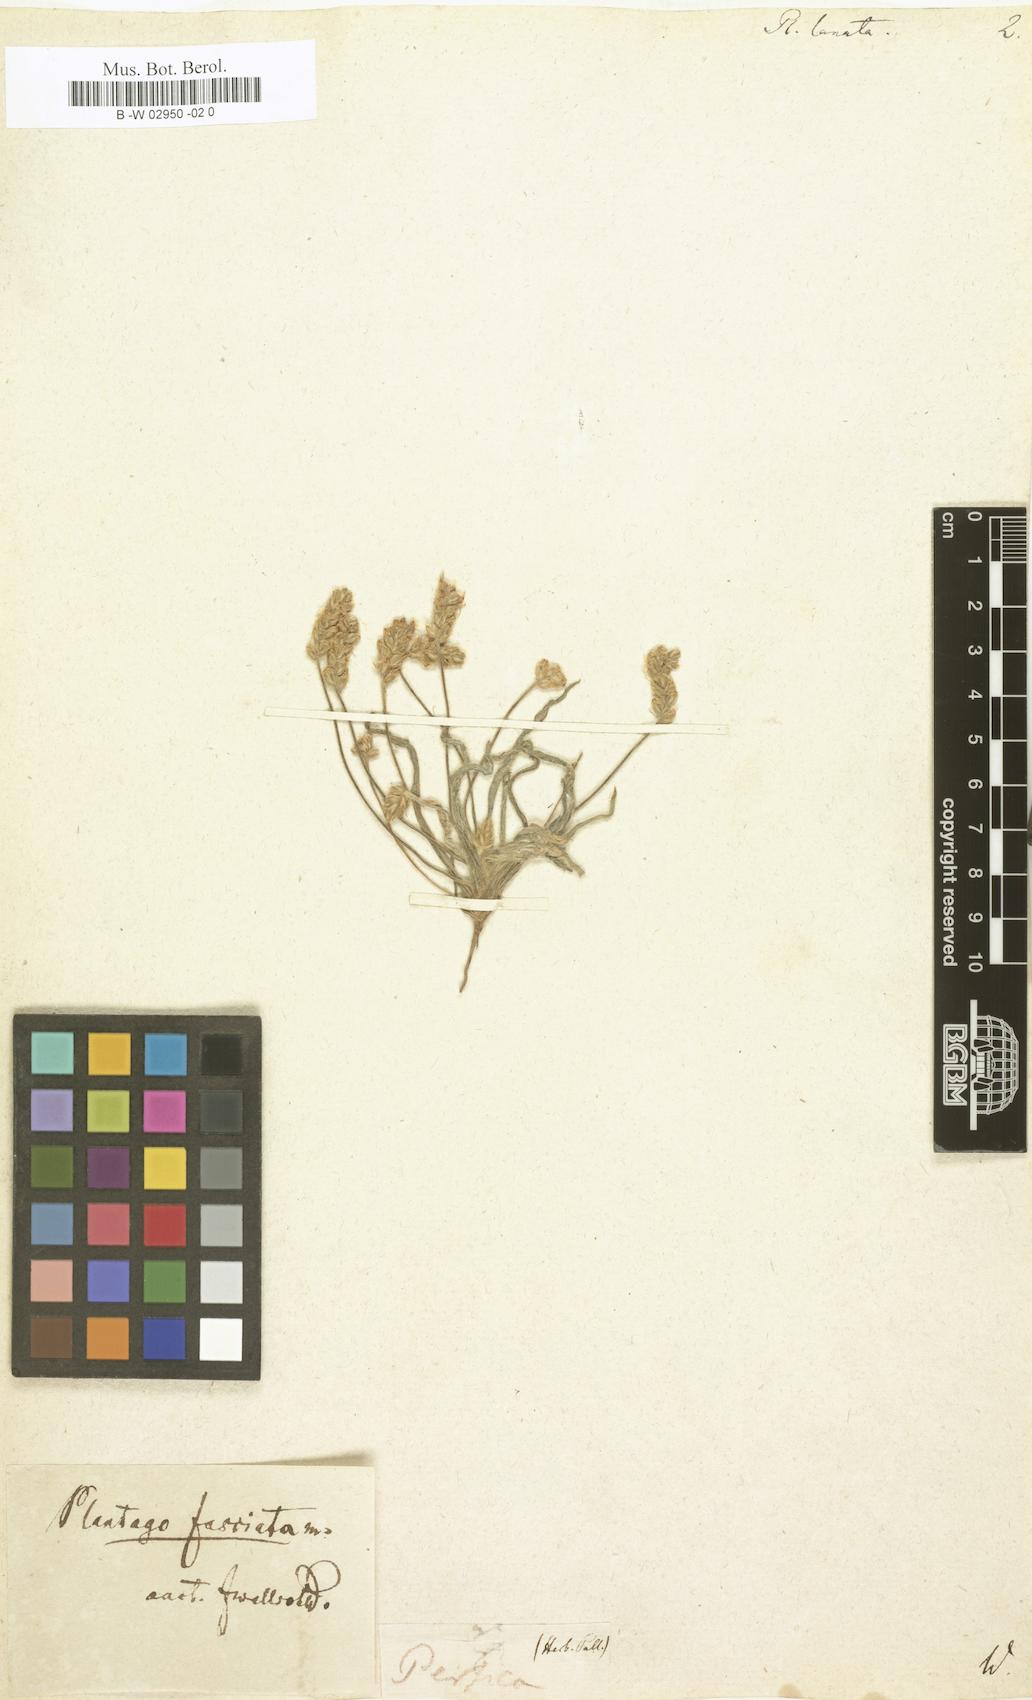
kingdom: Plantae
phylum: Tracheophyta
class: Magnoliopsida
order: Lamiales
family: Plantaginaceae
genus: Plantago
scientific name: Plantago
